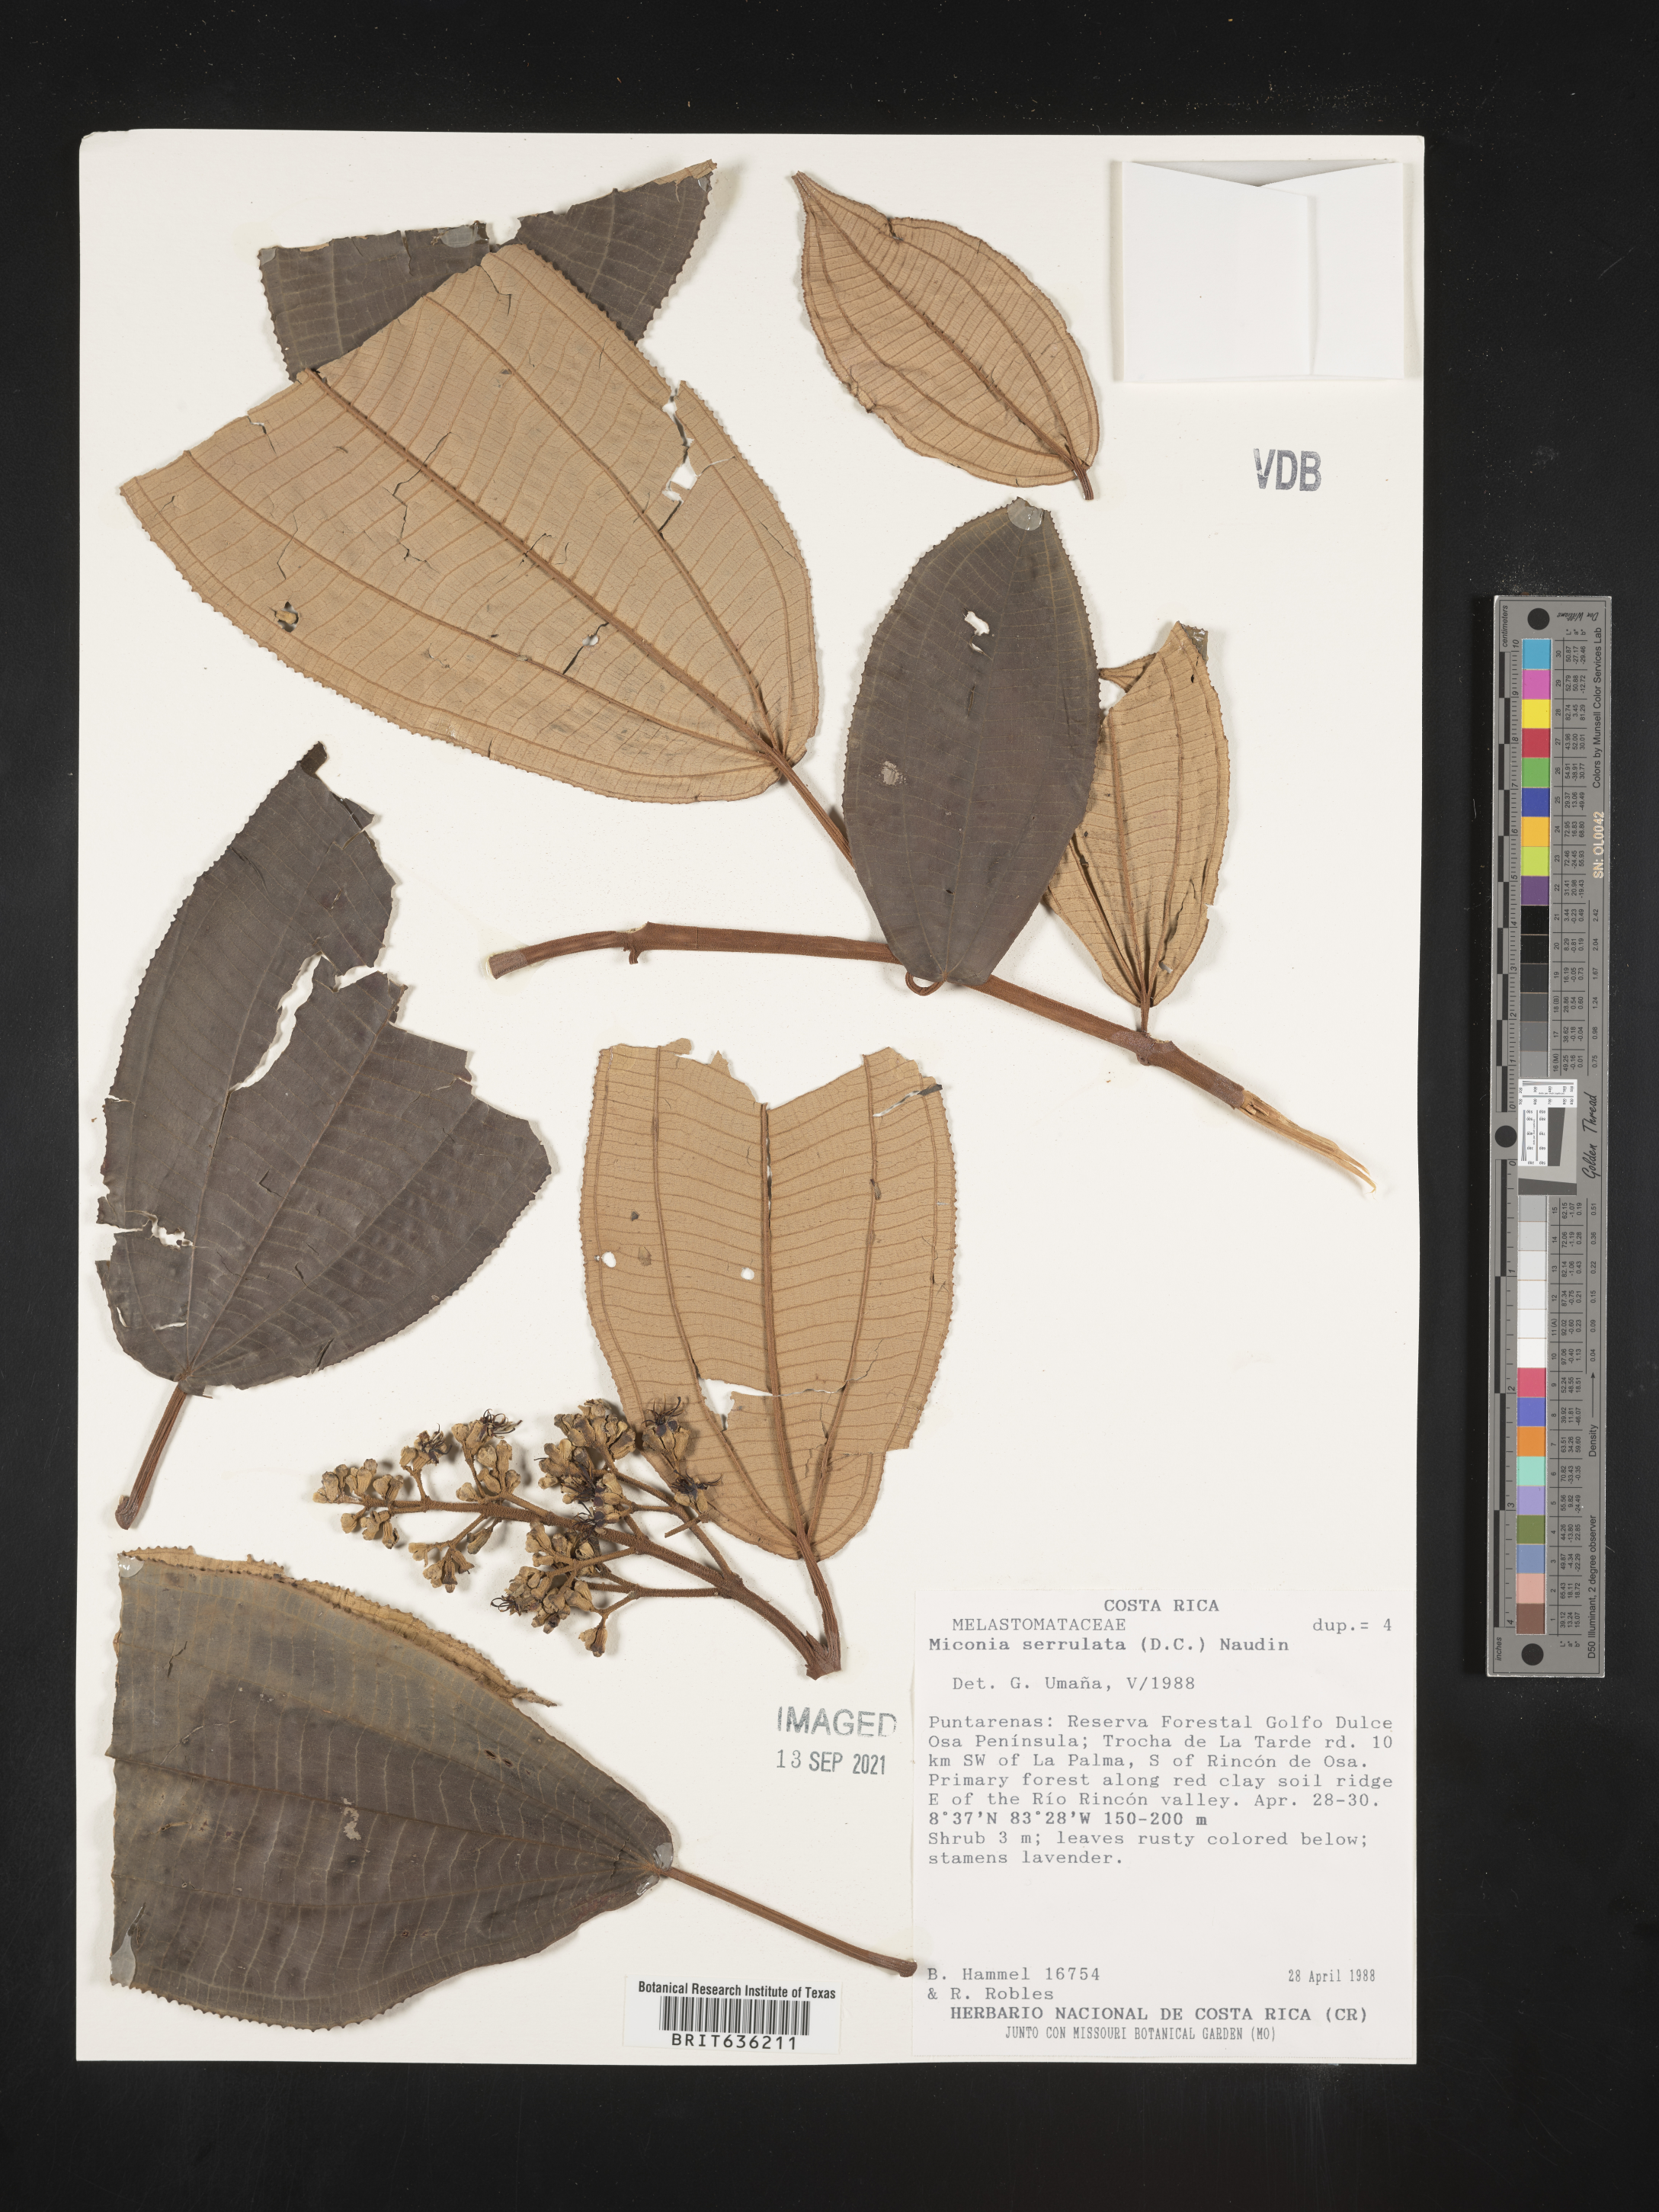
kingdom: Plantae
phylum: Tracheophyta
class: Magnoliopsida
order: Myrtales
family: Melastomataceae
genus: Miconia
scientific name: Miconia
